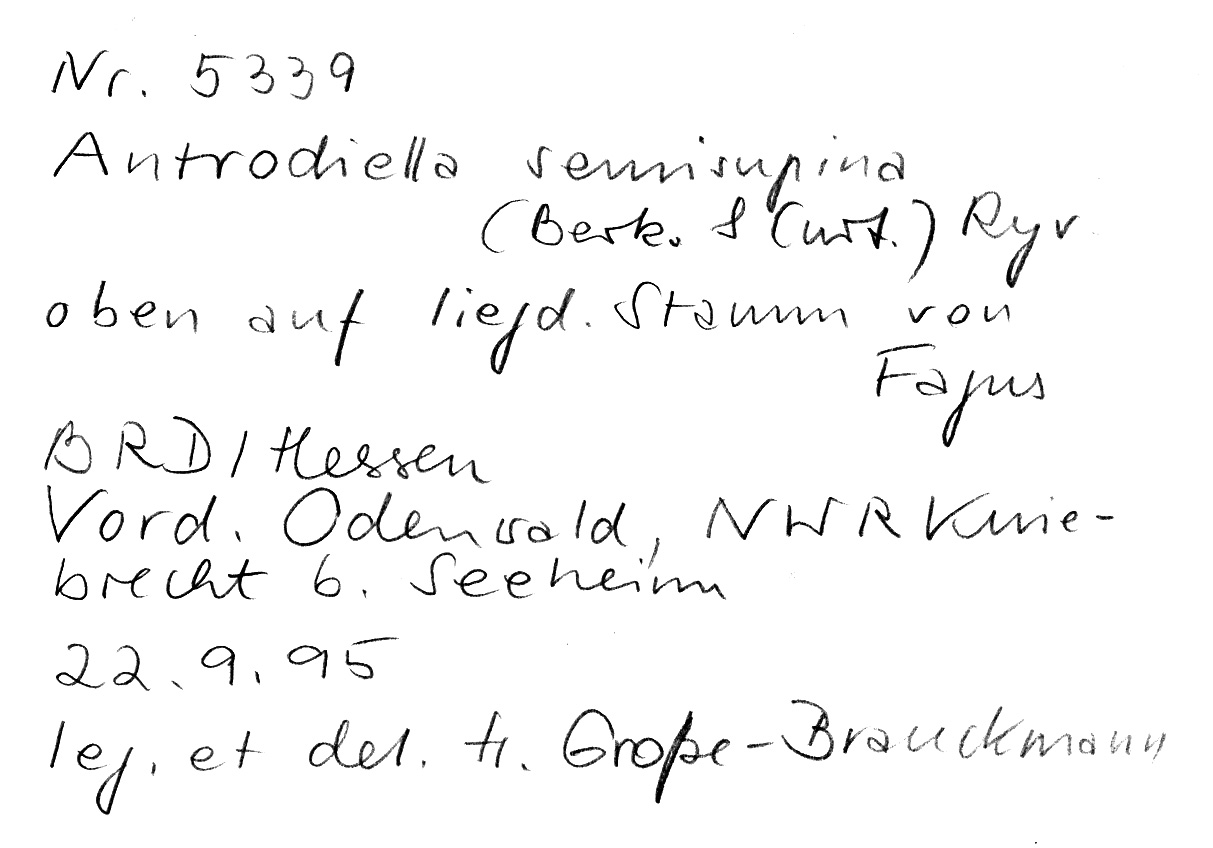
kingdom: Fungi
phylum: Basidiomycota
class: Agaricomycetes
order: Polyporales
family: Steccherinaceae
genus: Antrodiella
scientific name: Antrodiella semisupina
